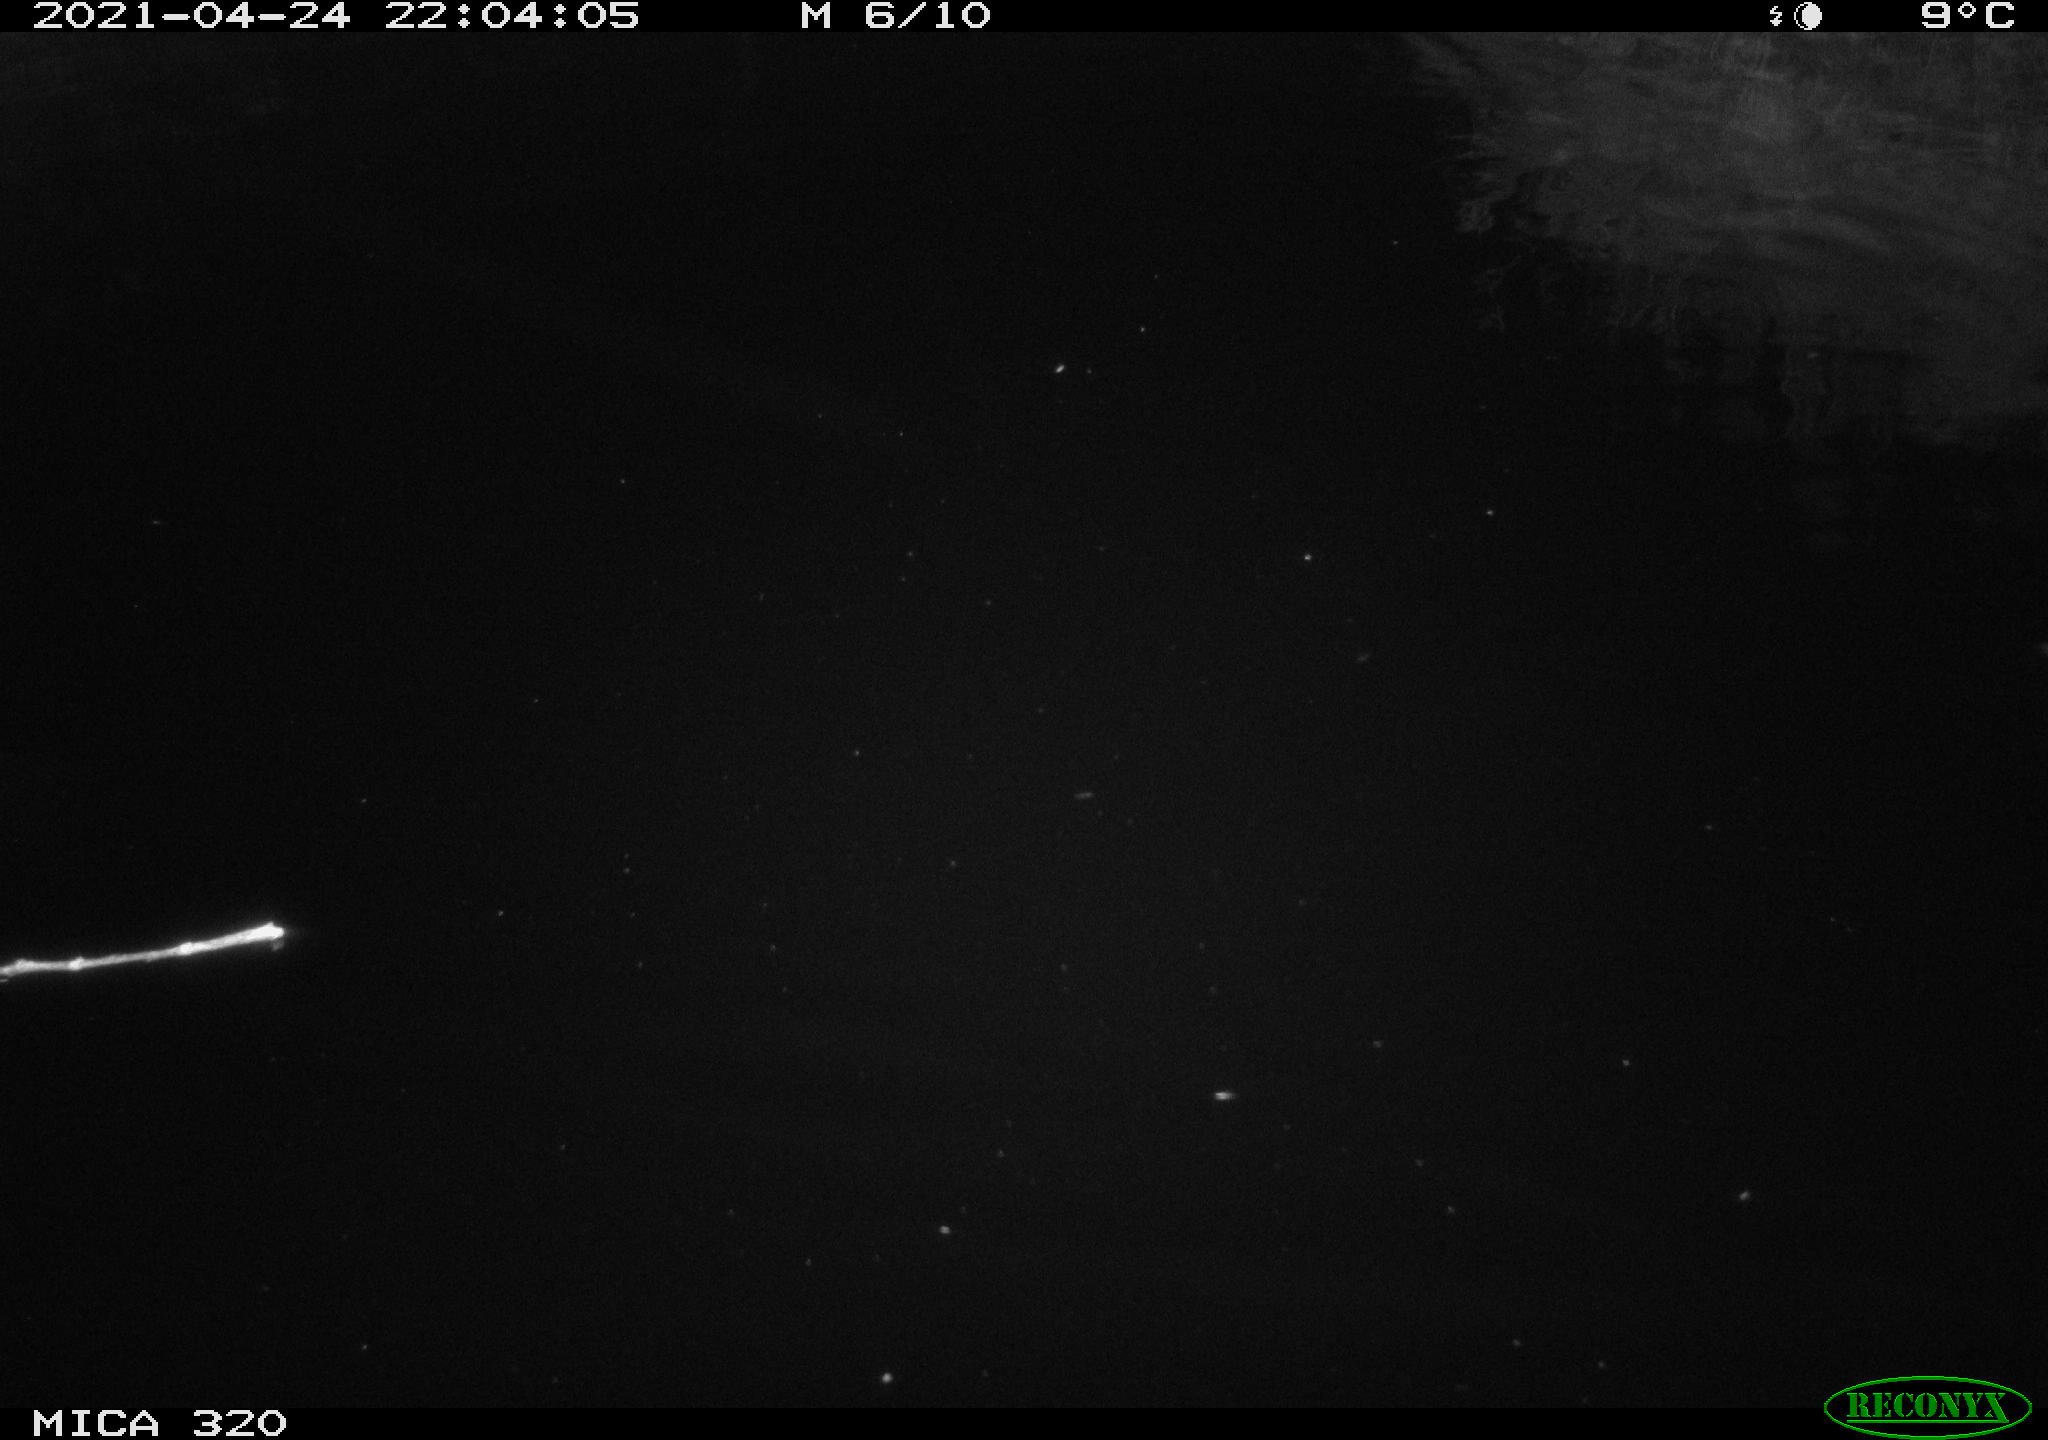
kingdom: Animalia
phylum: Chordata
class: Aves
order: Anseriformes
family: Anatidae
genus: Anas
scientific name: Anas platyrhynchos
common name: Mallard
